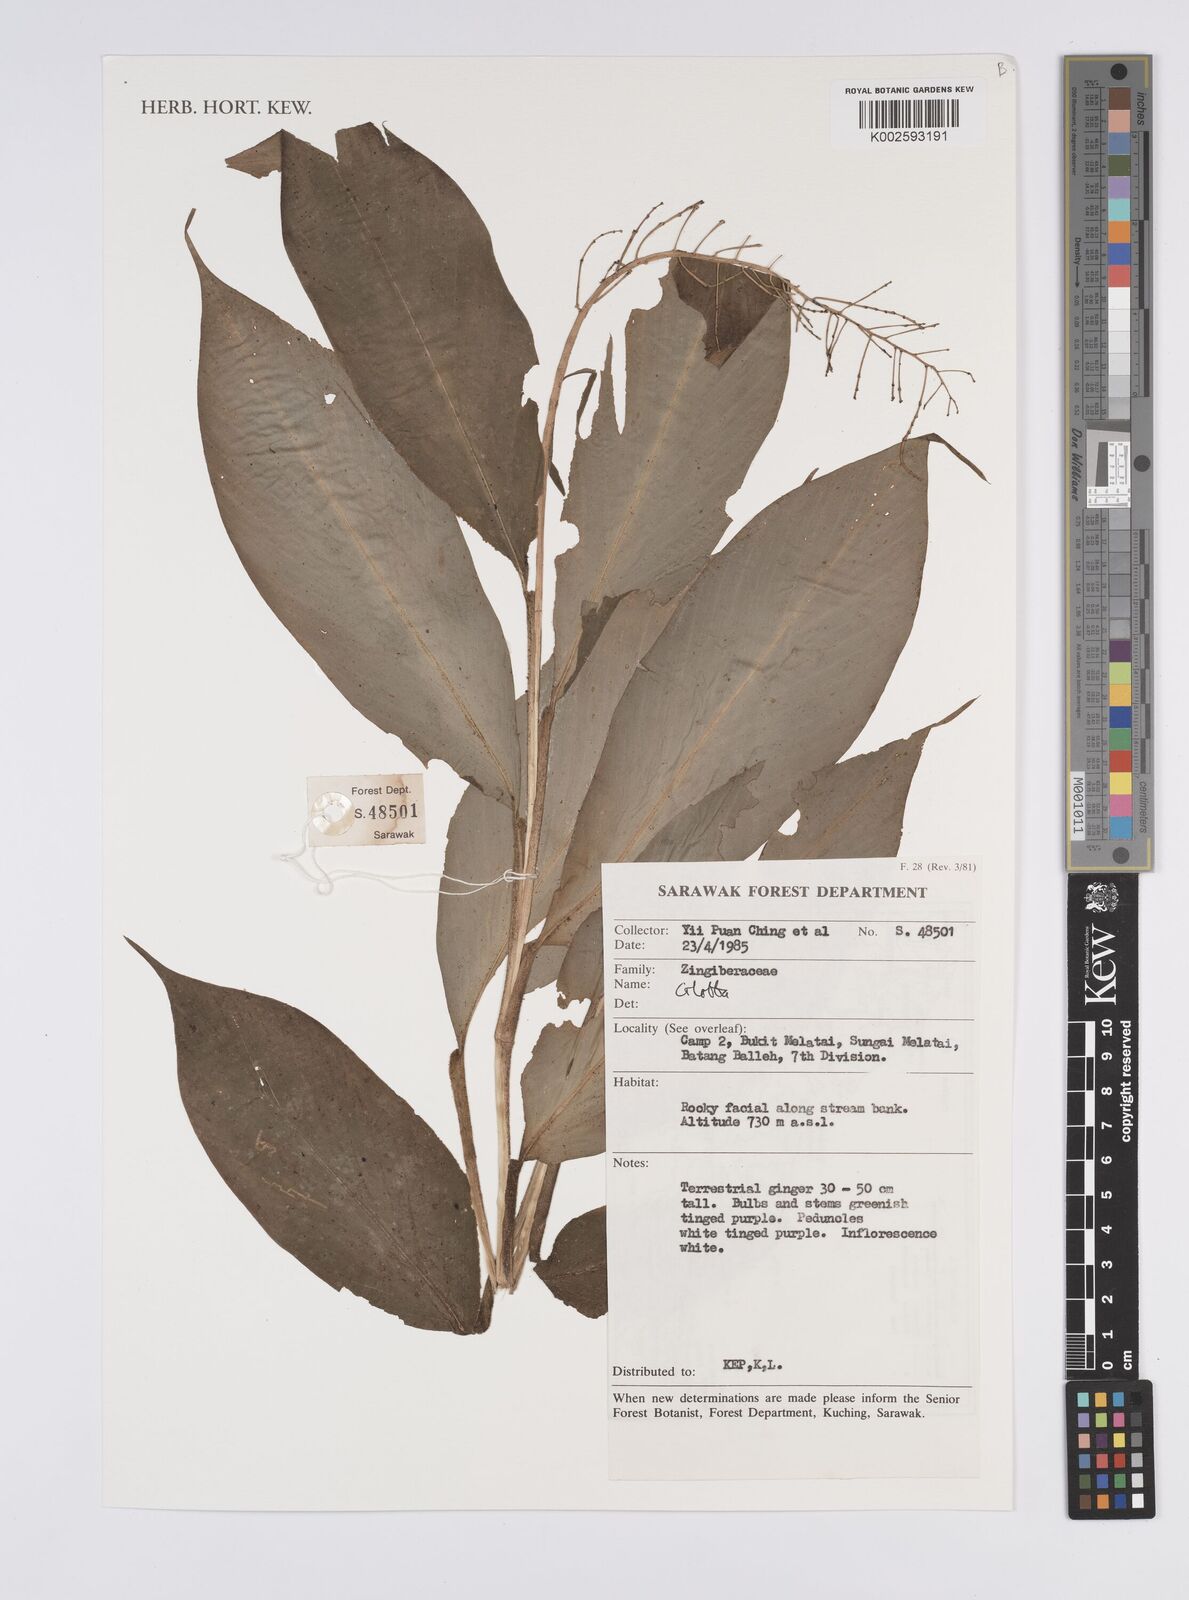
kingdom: Plantae
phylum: Tracheophyta
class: Liliopsida
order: Zingiberales
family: Zingiberaceae
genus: Globba
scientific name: Globba
